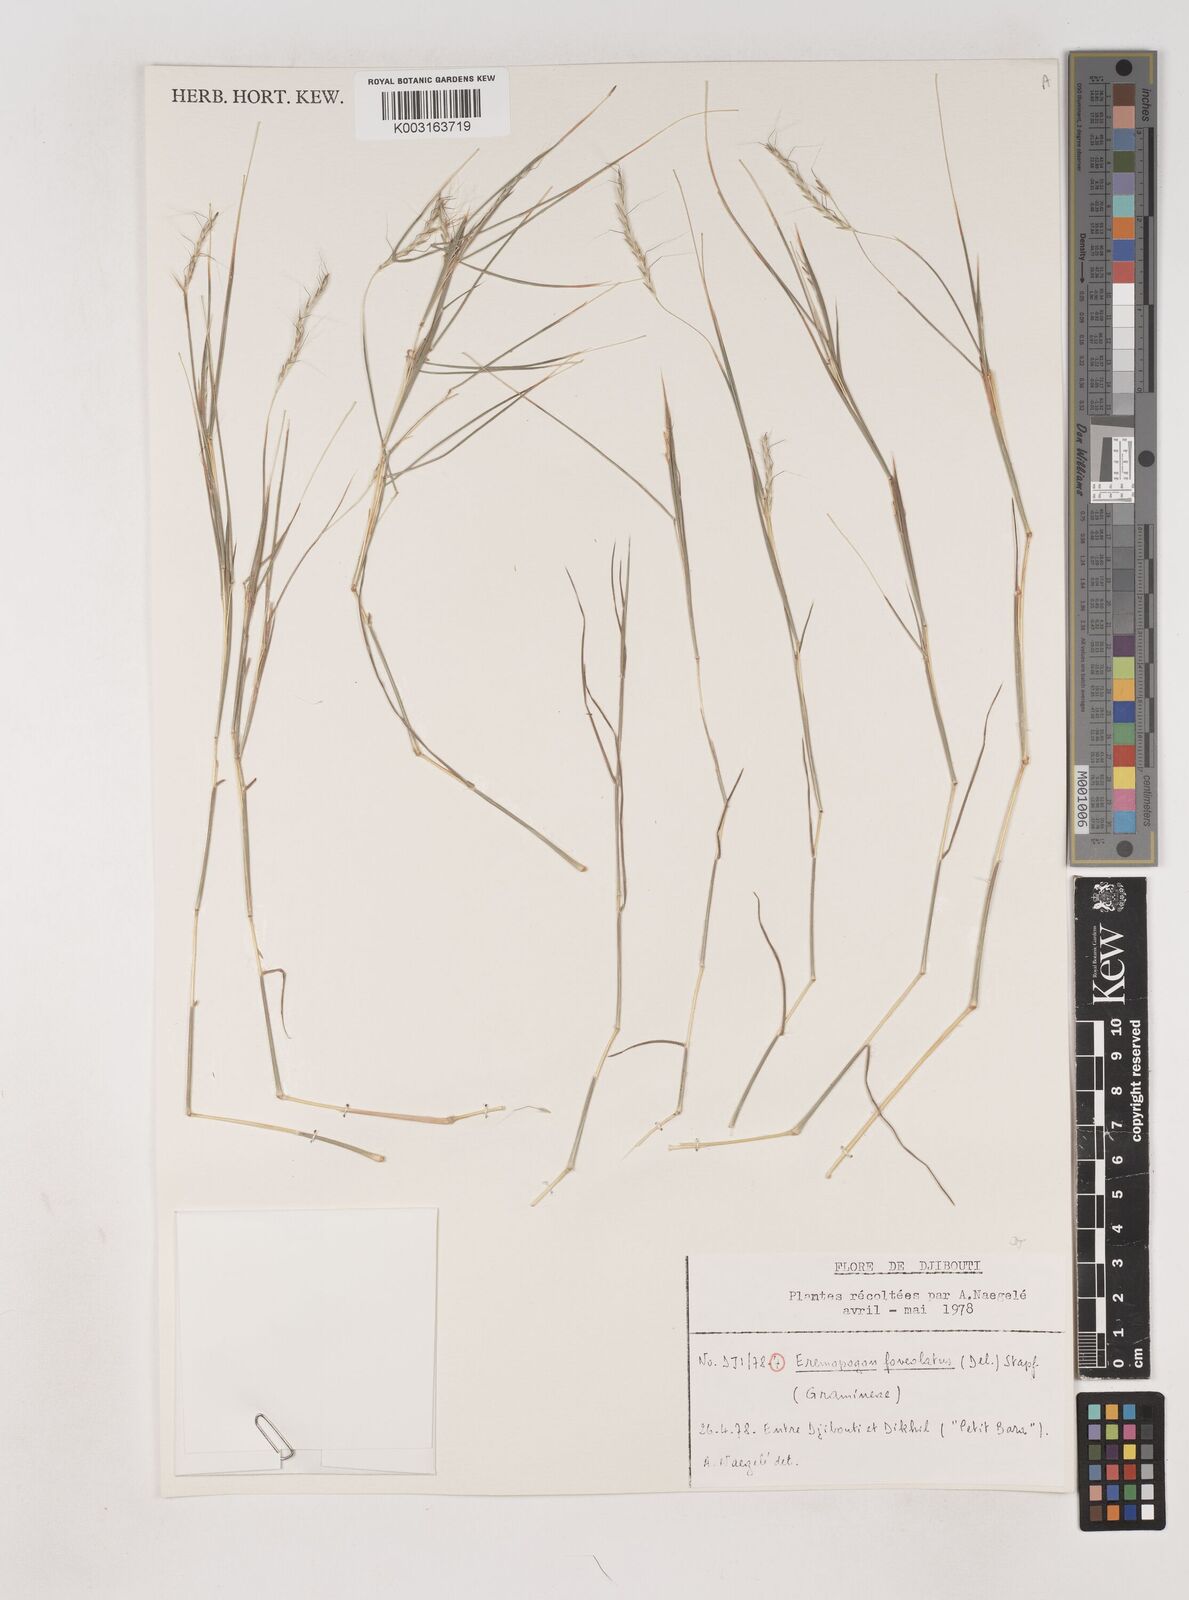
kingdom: Plantae
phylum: Tracheophyta
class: Liliopsida
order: Poales
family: Poaceae
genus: Dichanthium
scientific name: Dichanthium foveolatum
